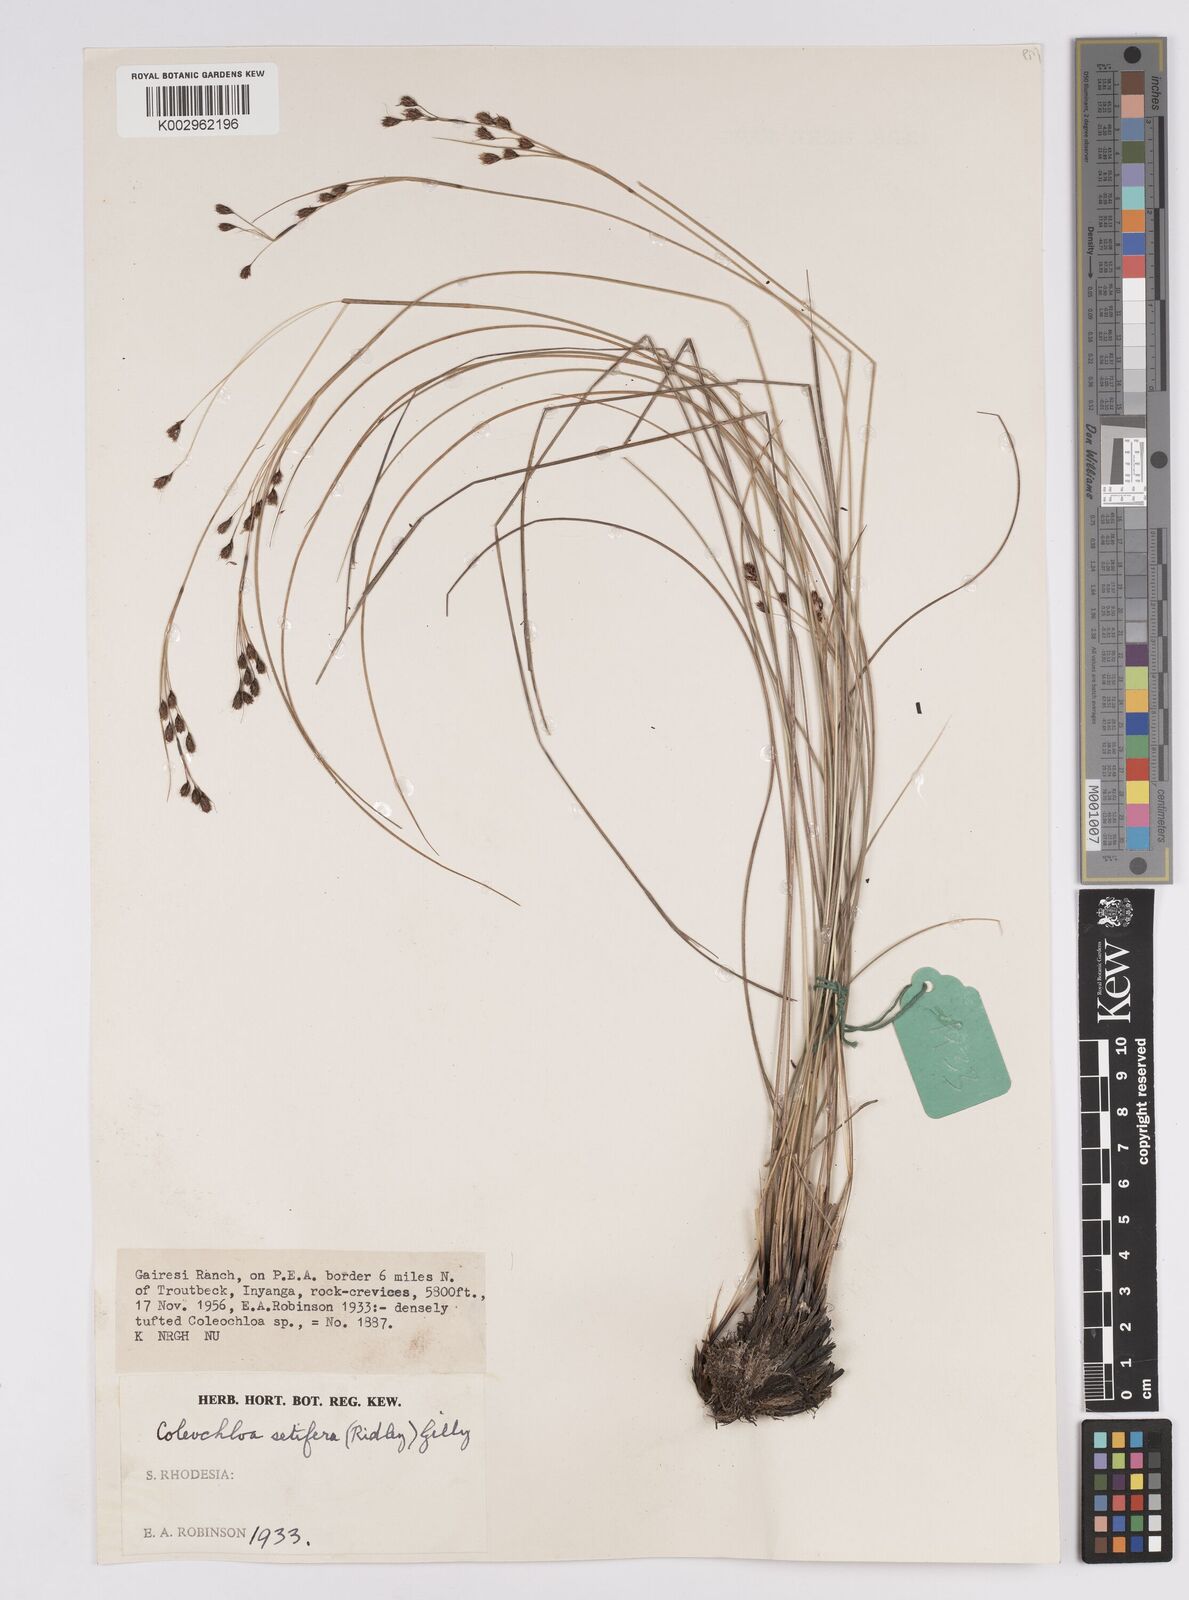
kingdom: Plantae
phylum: Tracheophyta
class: Liliopsida
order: Poales
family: Cyperaceae
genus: Coleochloa
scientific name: Coleochloa setifera
